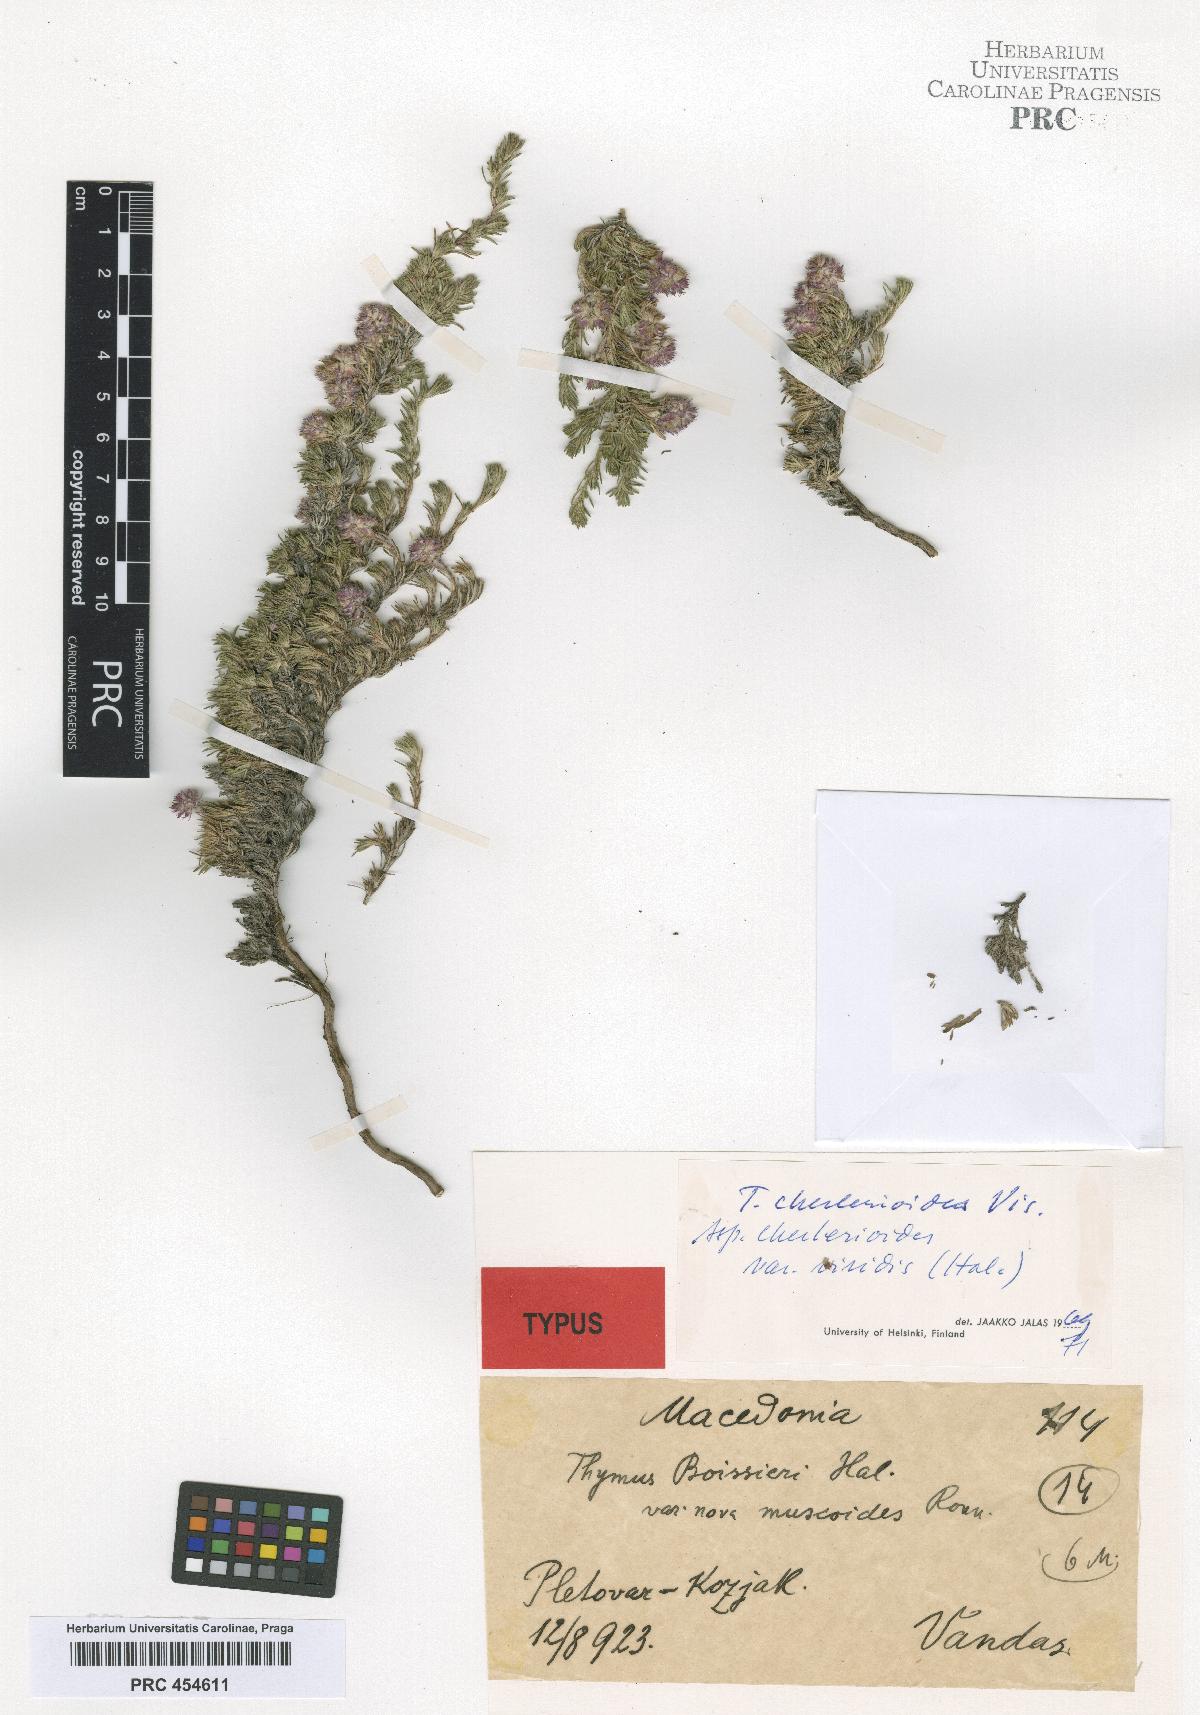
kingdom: Plantae
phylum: Tracheophyta
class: Magnoliopsida
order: Lamiales
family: Lamiaceae
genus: Thymus
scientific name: Thymus cherlerioides
